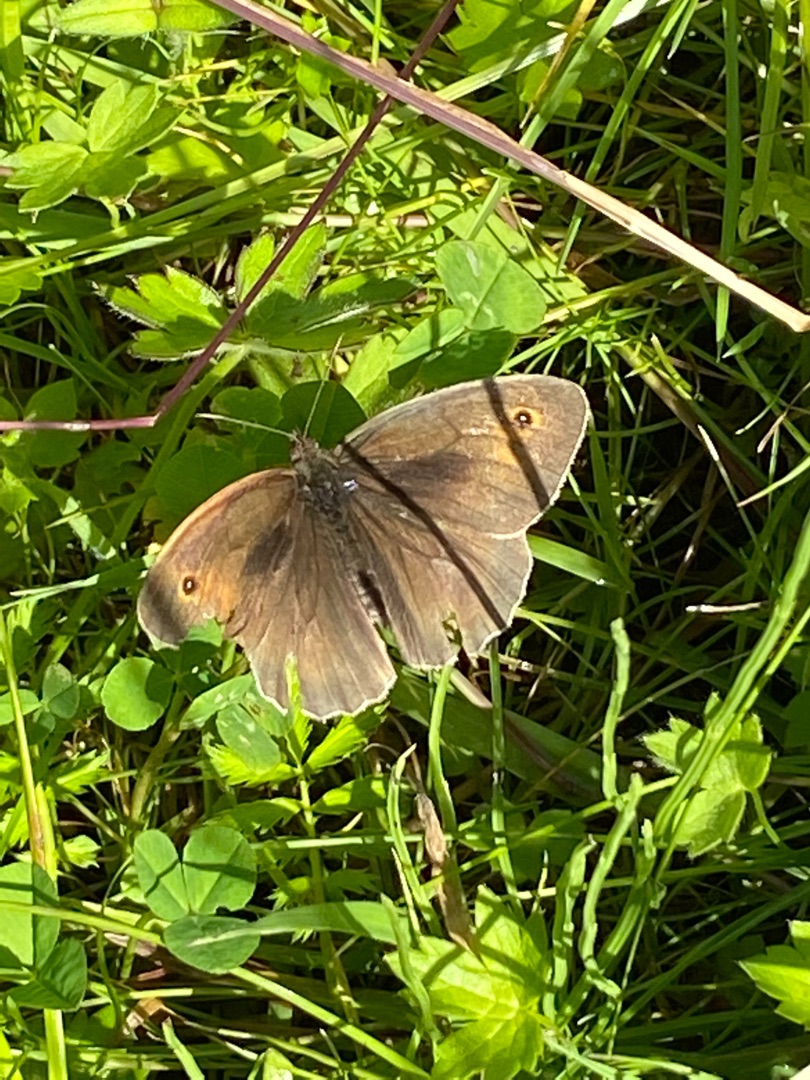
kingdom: Animalia
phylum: Arthropoda
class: Insecta
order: Lepidoptera
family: Nymphalidae
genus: Maniola
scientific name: Maniola jurtina
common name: Græsrandøje
